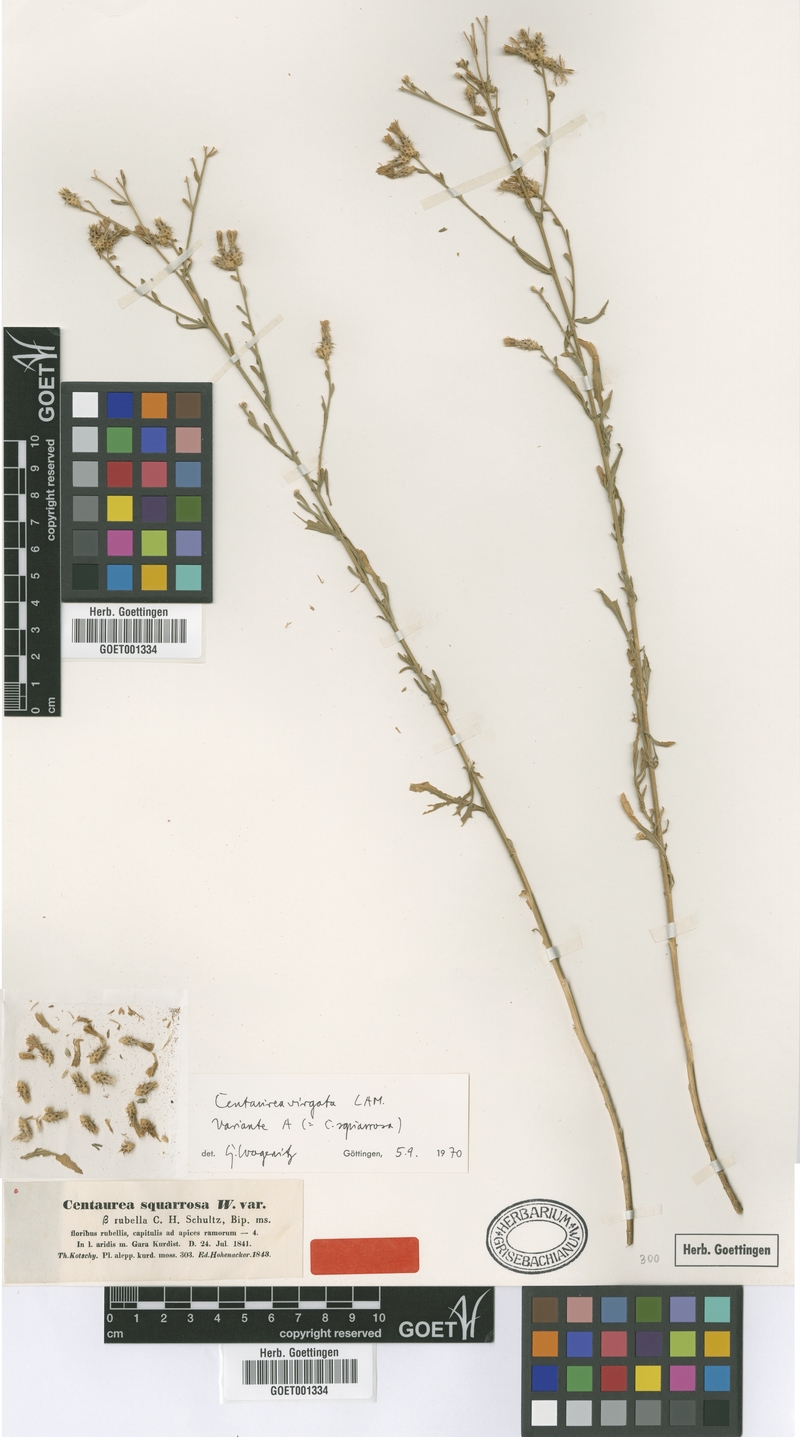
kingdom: Plantae
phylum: Tracheophyta
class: Magnoliopsida
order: Asterales
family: Asteraceae
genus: Centaurea
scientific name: Centaurea virgata
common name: Squarrose knapweed
